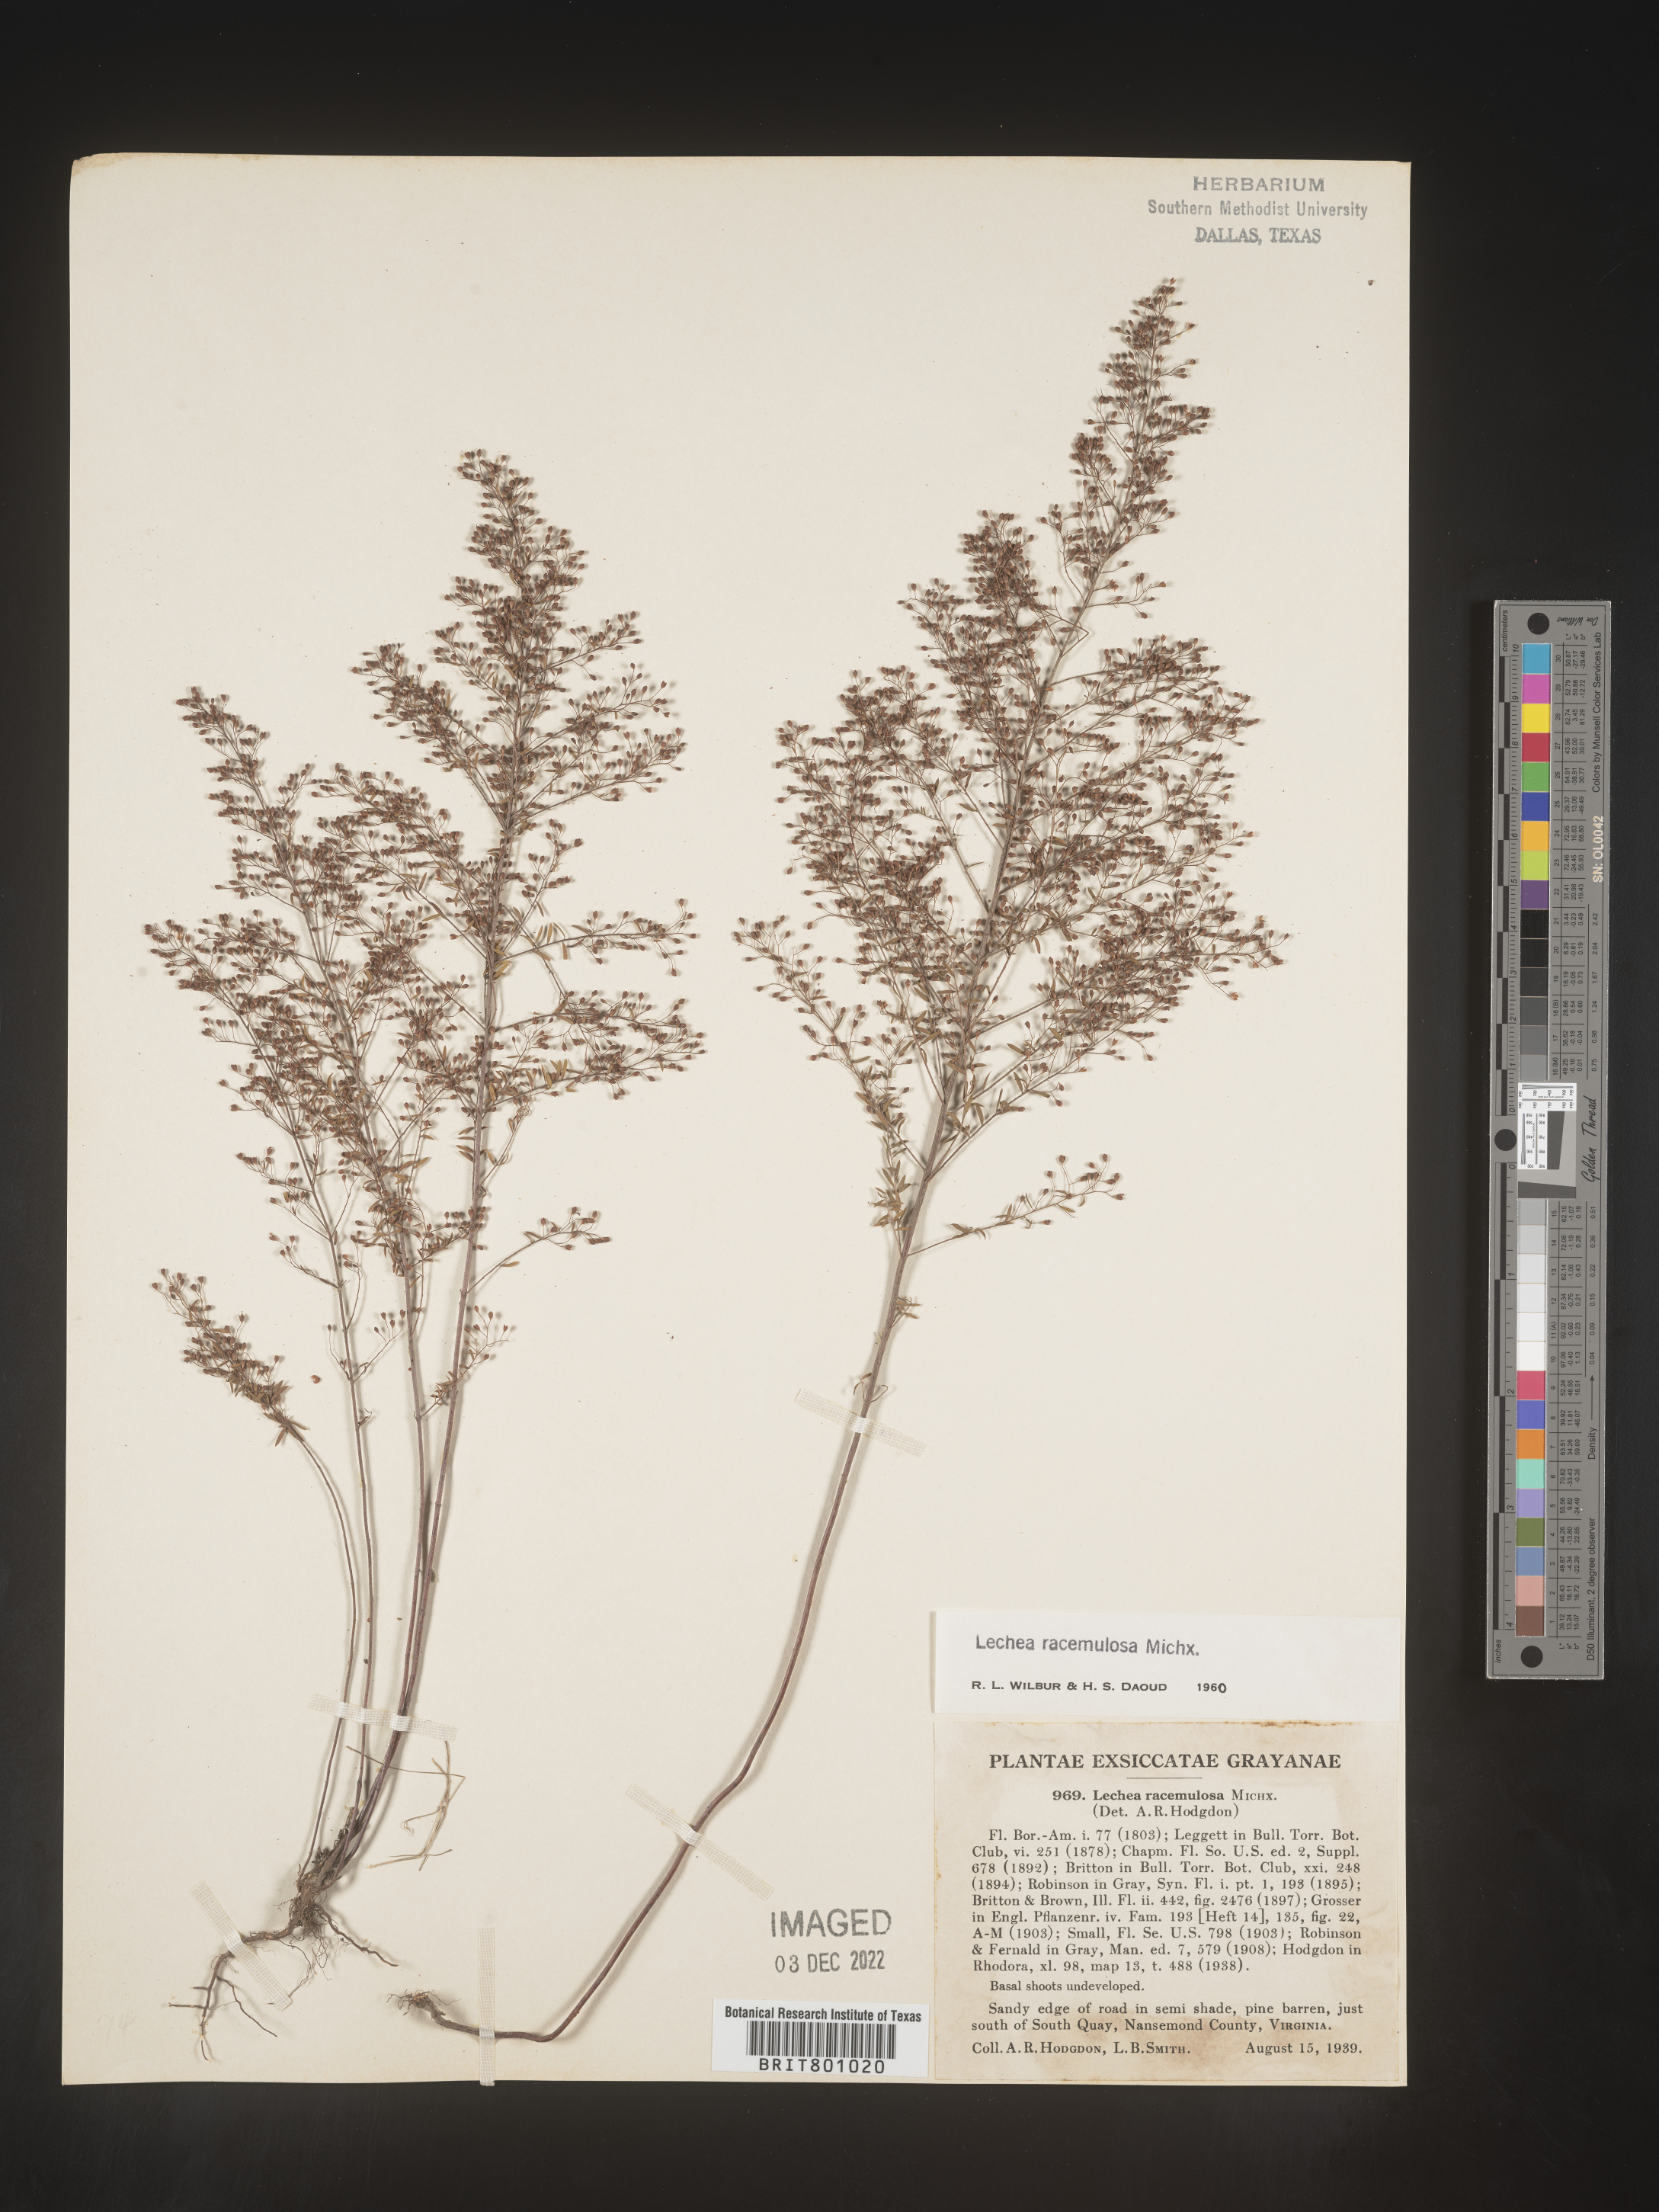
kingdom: Plantae
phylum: Tracheophyta
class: Magnoliopsida
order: Malvales
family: Cistaceae
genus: Lechea
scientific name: Lechea racemulosa
